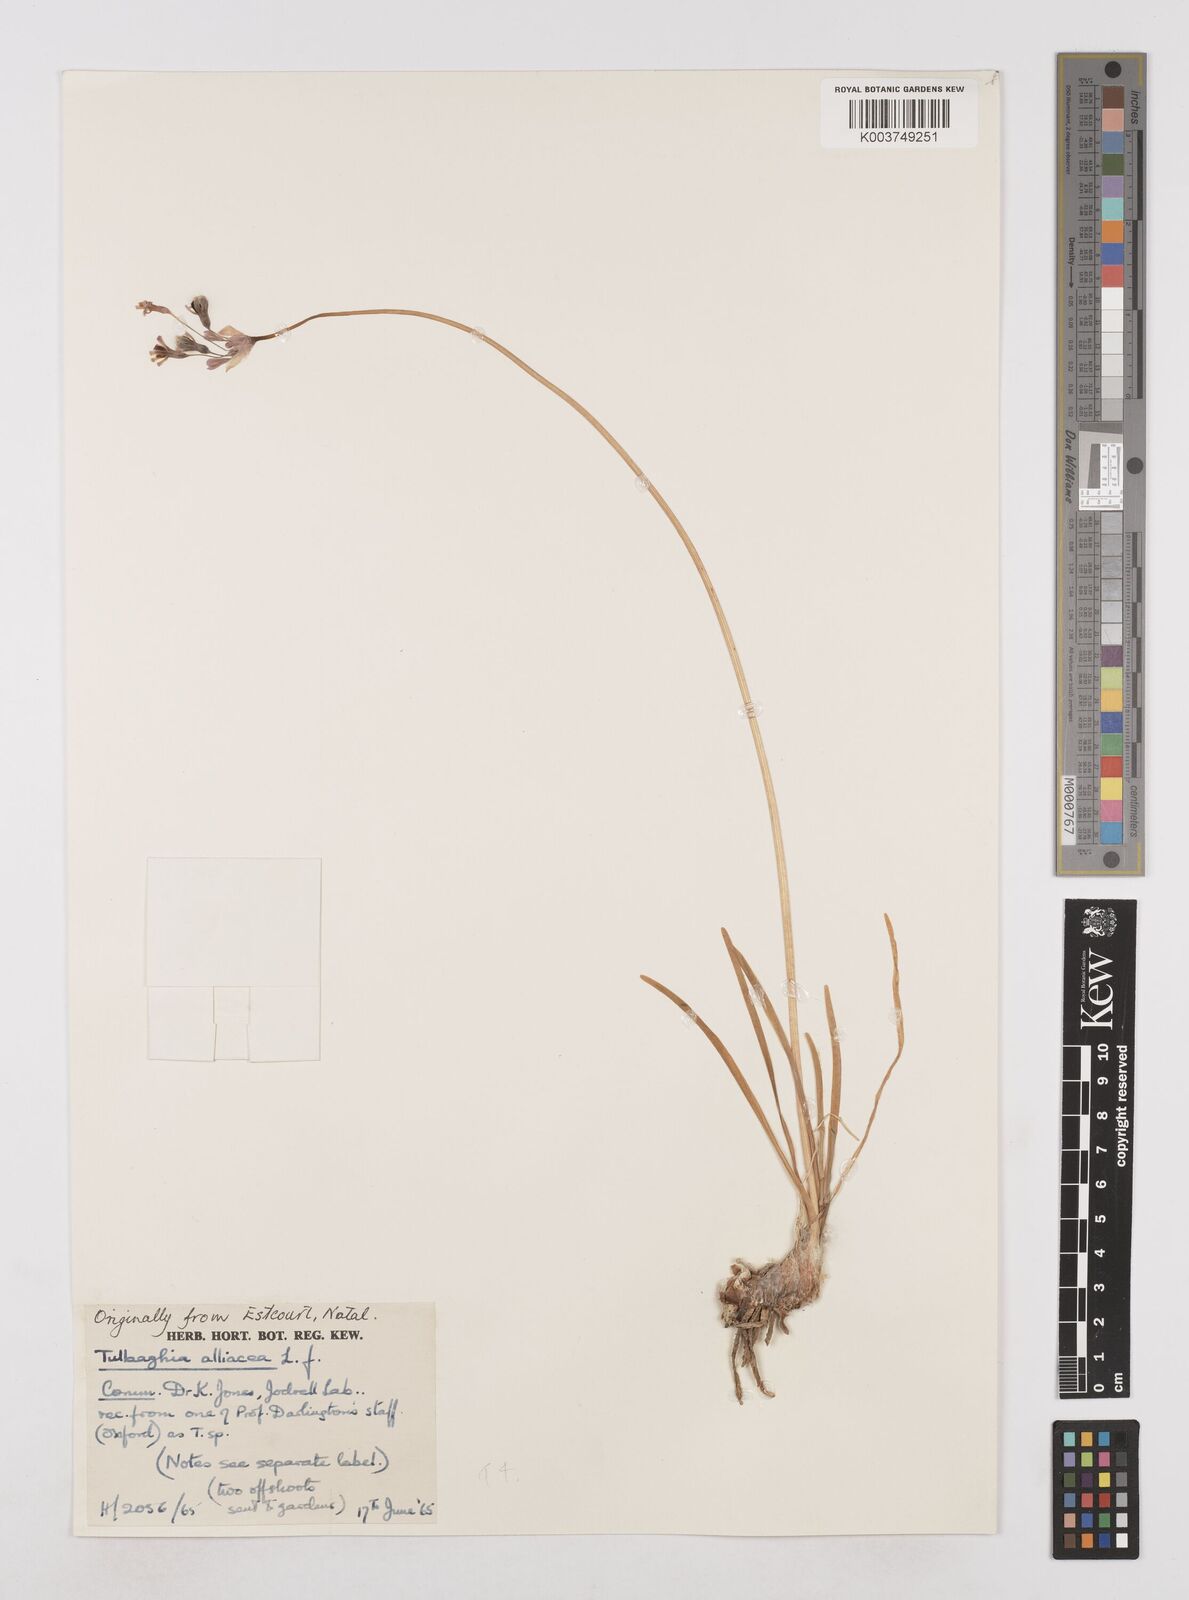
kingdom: Plantae
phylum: Tracheophyta
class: Liliopsida
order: Asparagales
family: Amaryllidaceae
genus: Tulbaghia
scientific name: Tulbaghia alliacea
